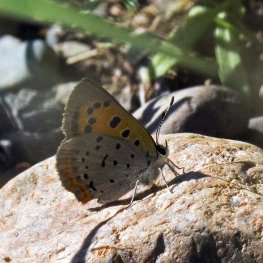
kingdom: Animalia
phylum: Arthropoda
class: Insecta
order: Lepidoptera
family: Lycaenidae
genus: Lycaena
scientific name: Lycaena phlaeas
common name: American Copper
